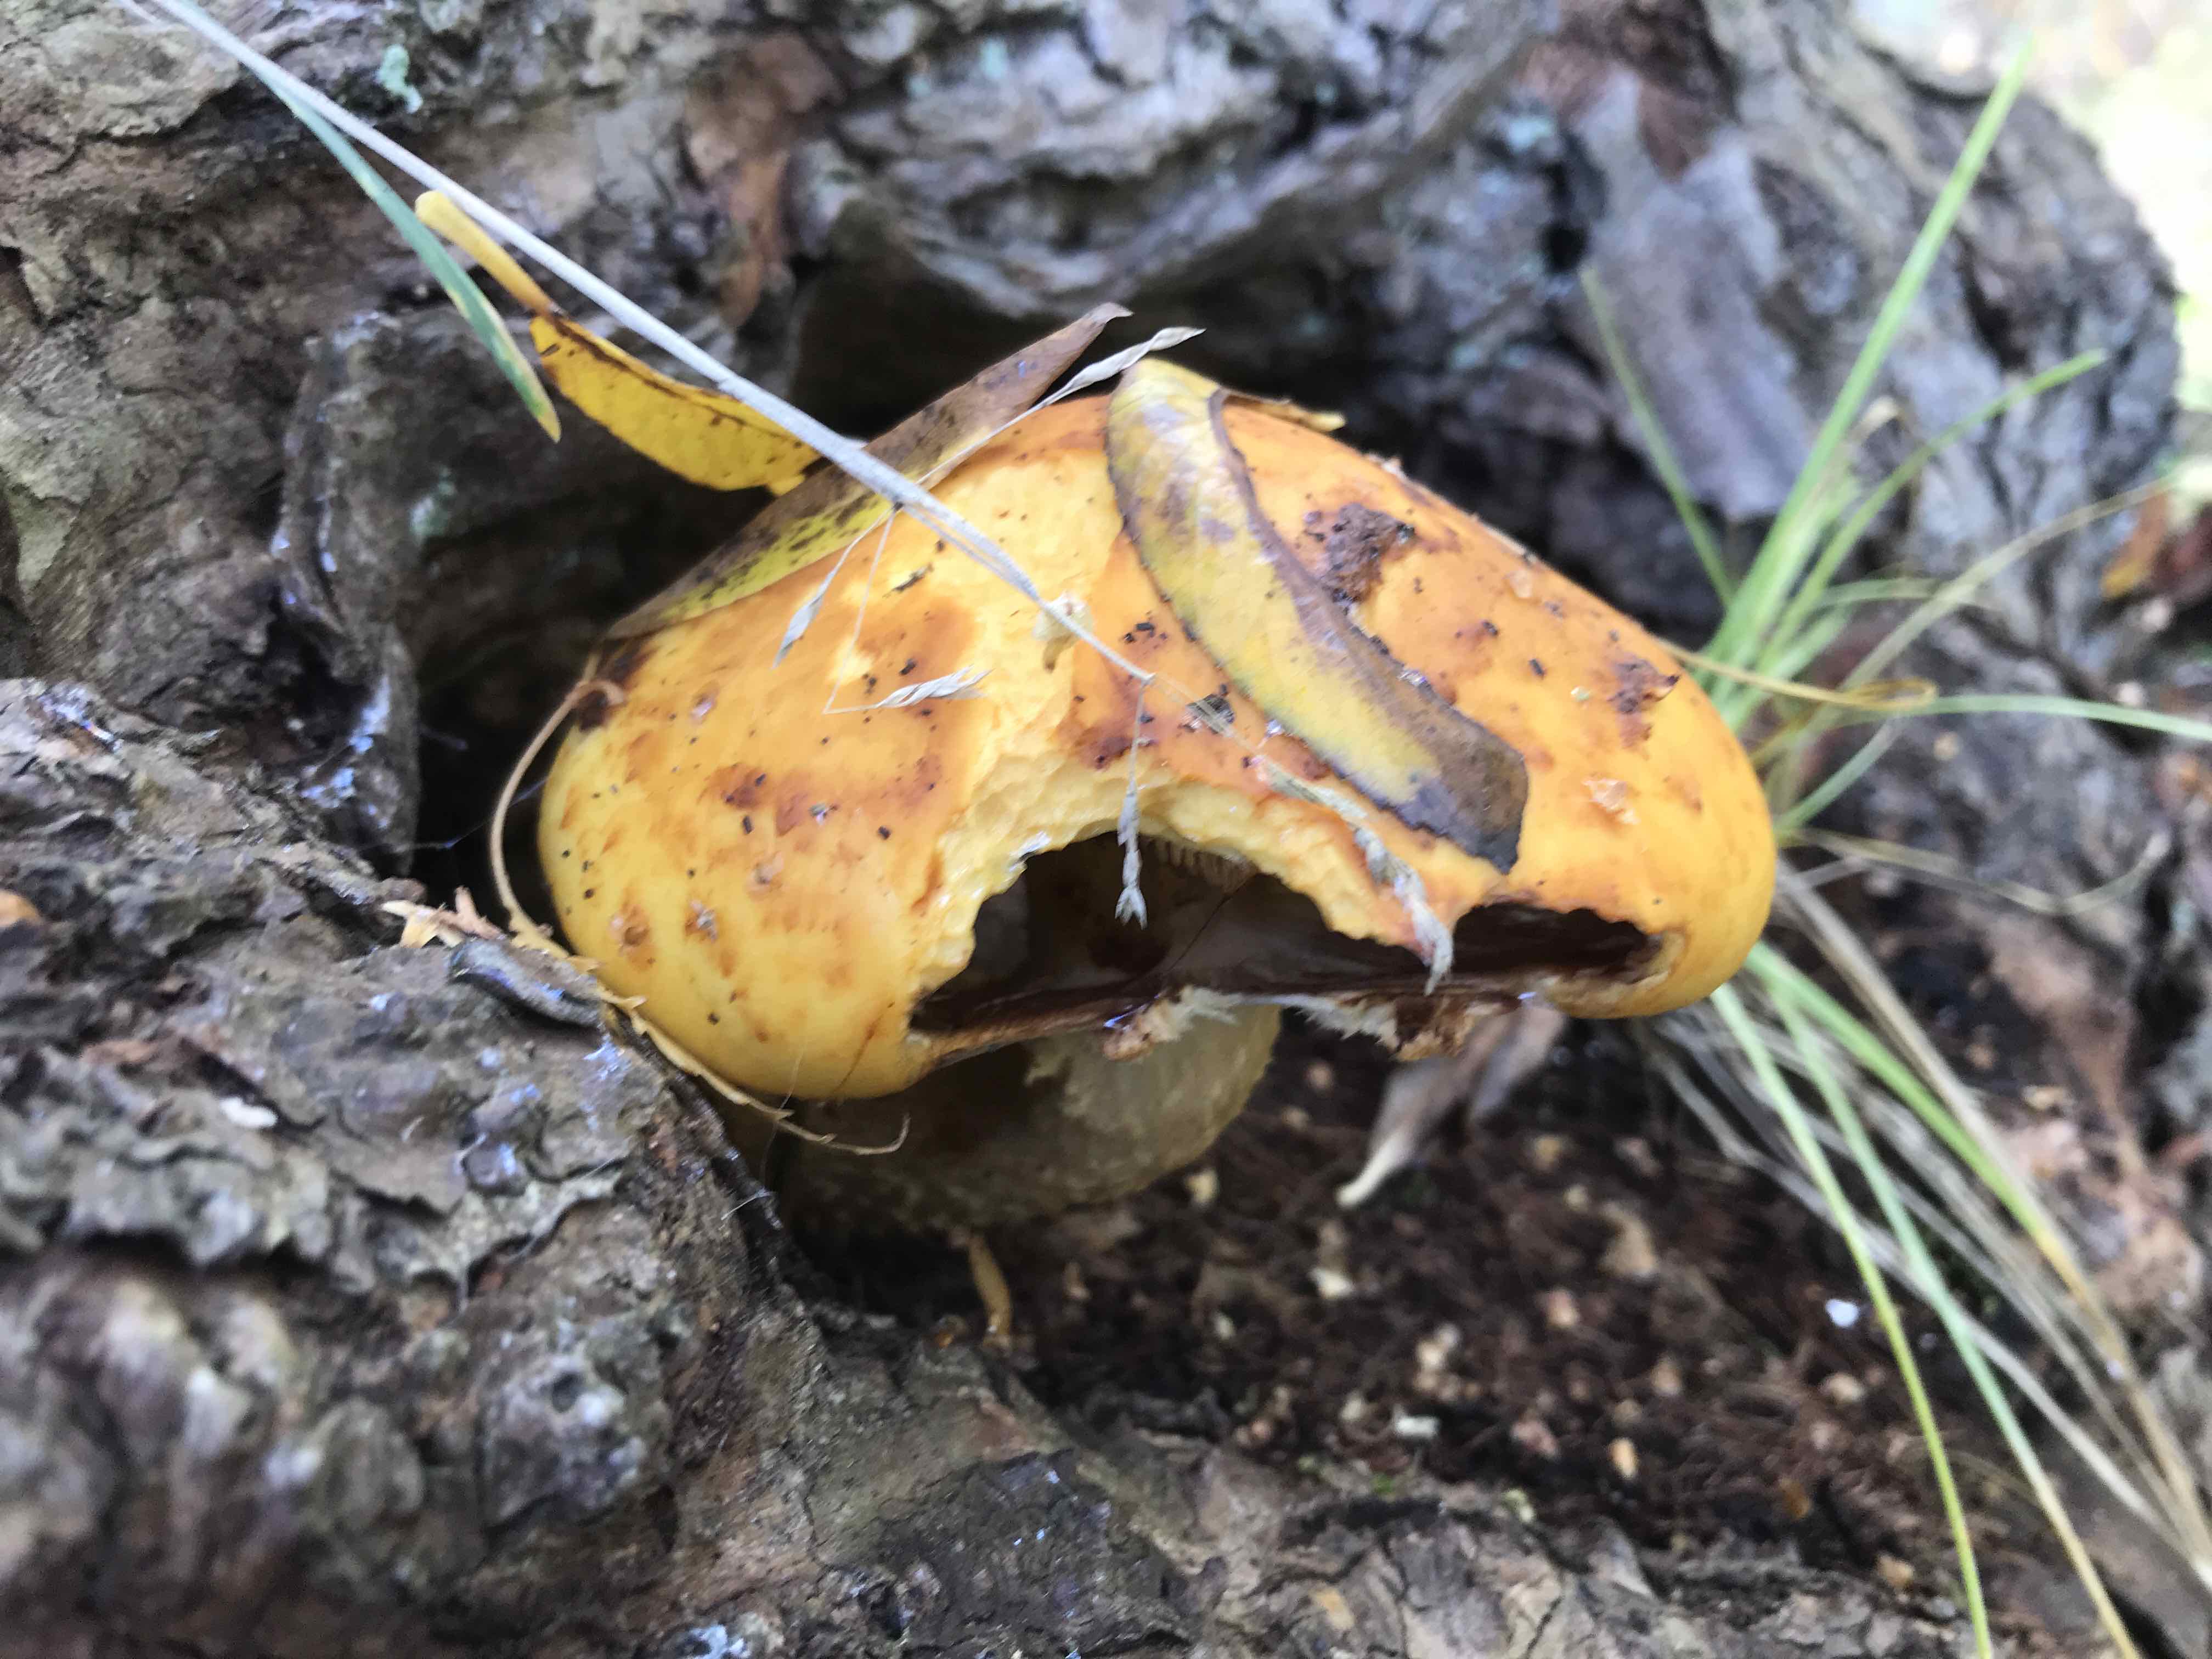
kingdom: Fungi
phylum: Basidiomycota
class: Agaricomycetes
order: Agaricales
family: Strophariaceae
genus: Pholiota
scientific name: Pholiota
